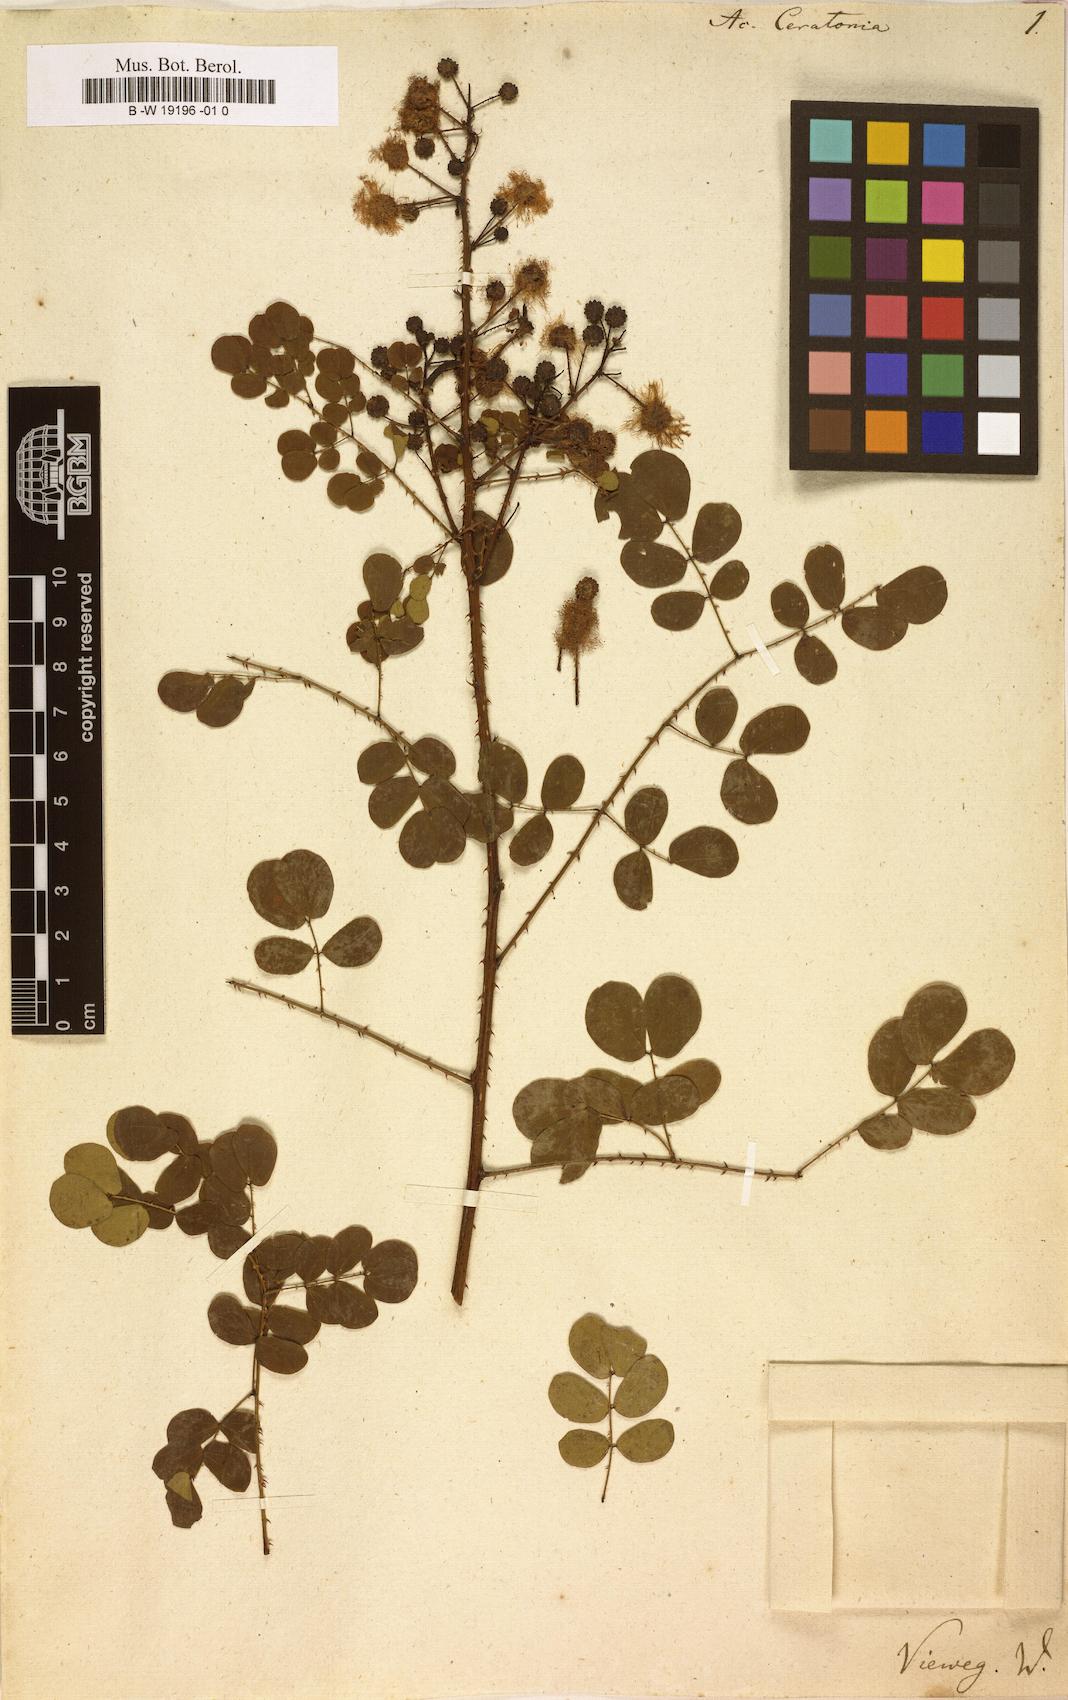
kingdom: Plantae
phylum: Tracheophyta
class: Magnoliopsida
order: Fabales
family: Fabaceae
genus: Mimosa
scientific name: Mimosa ceratonia
